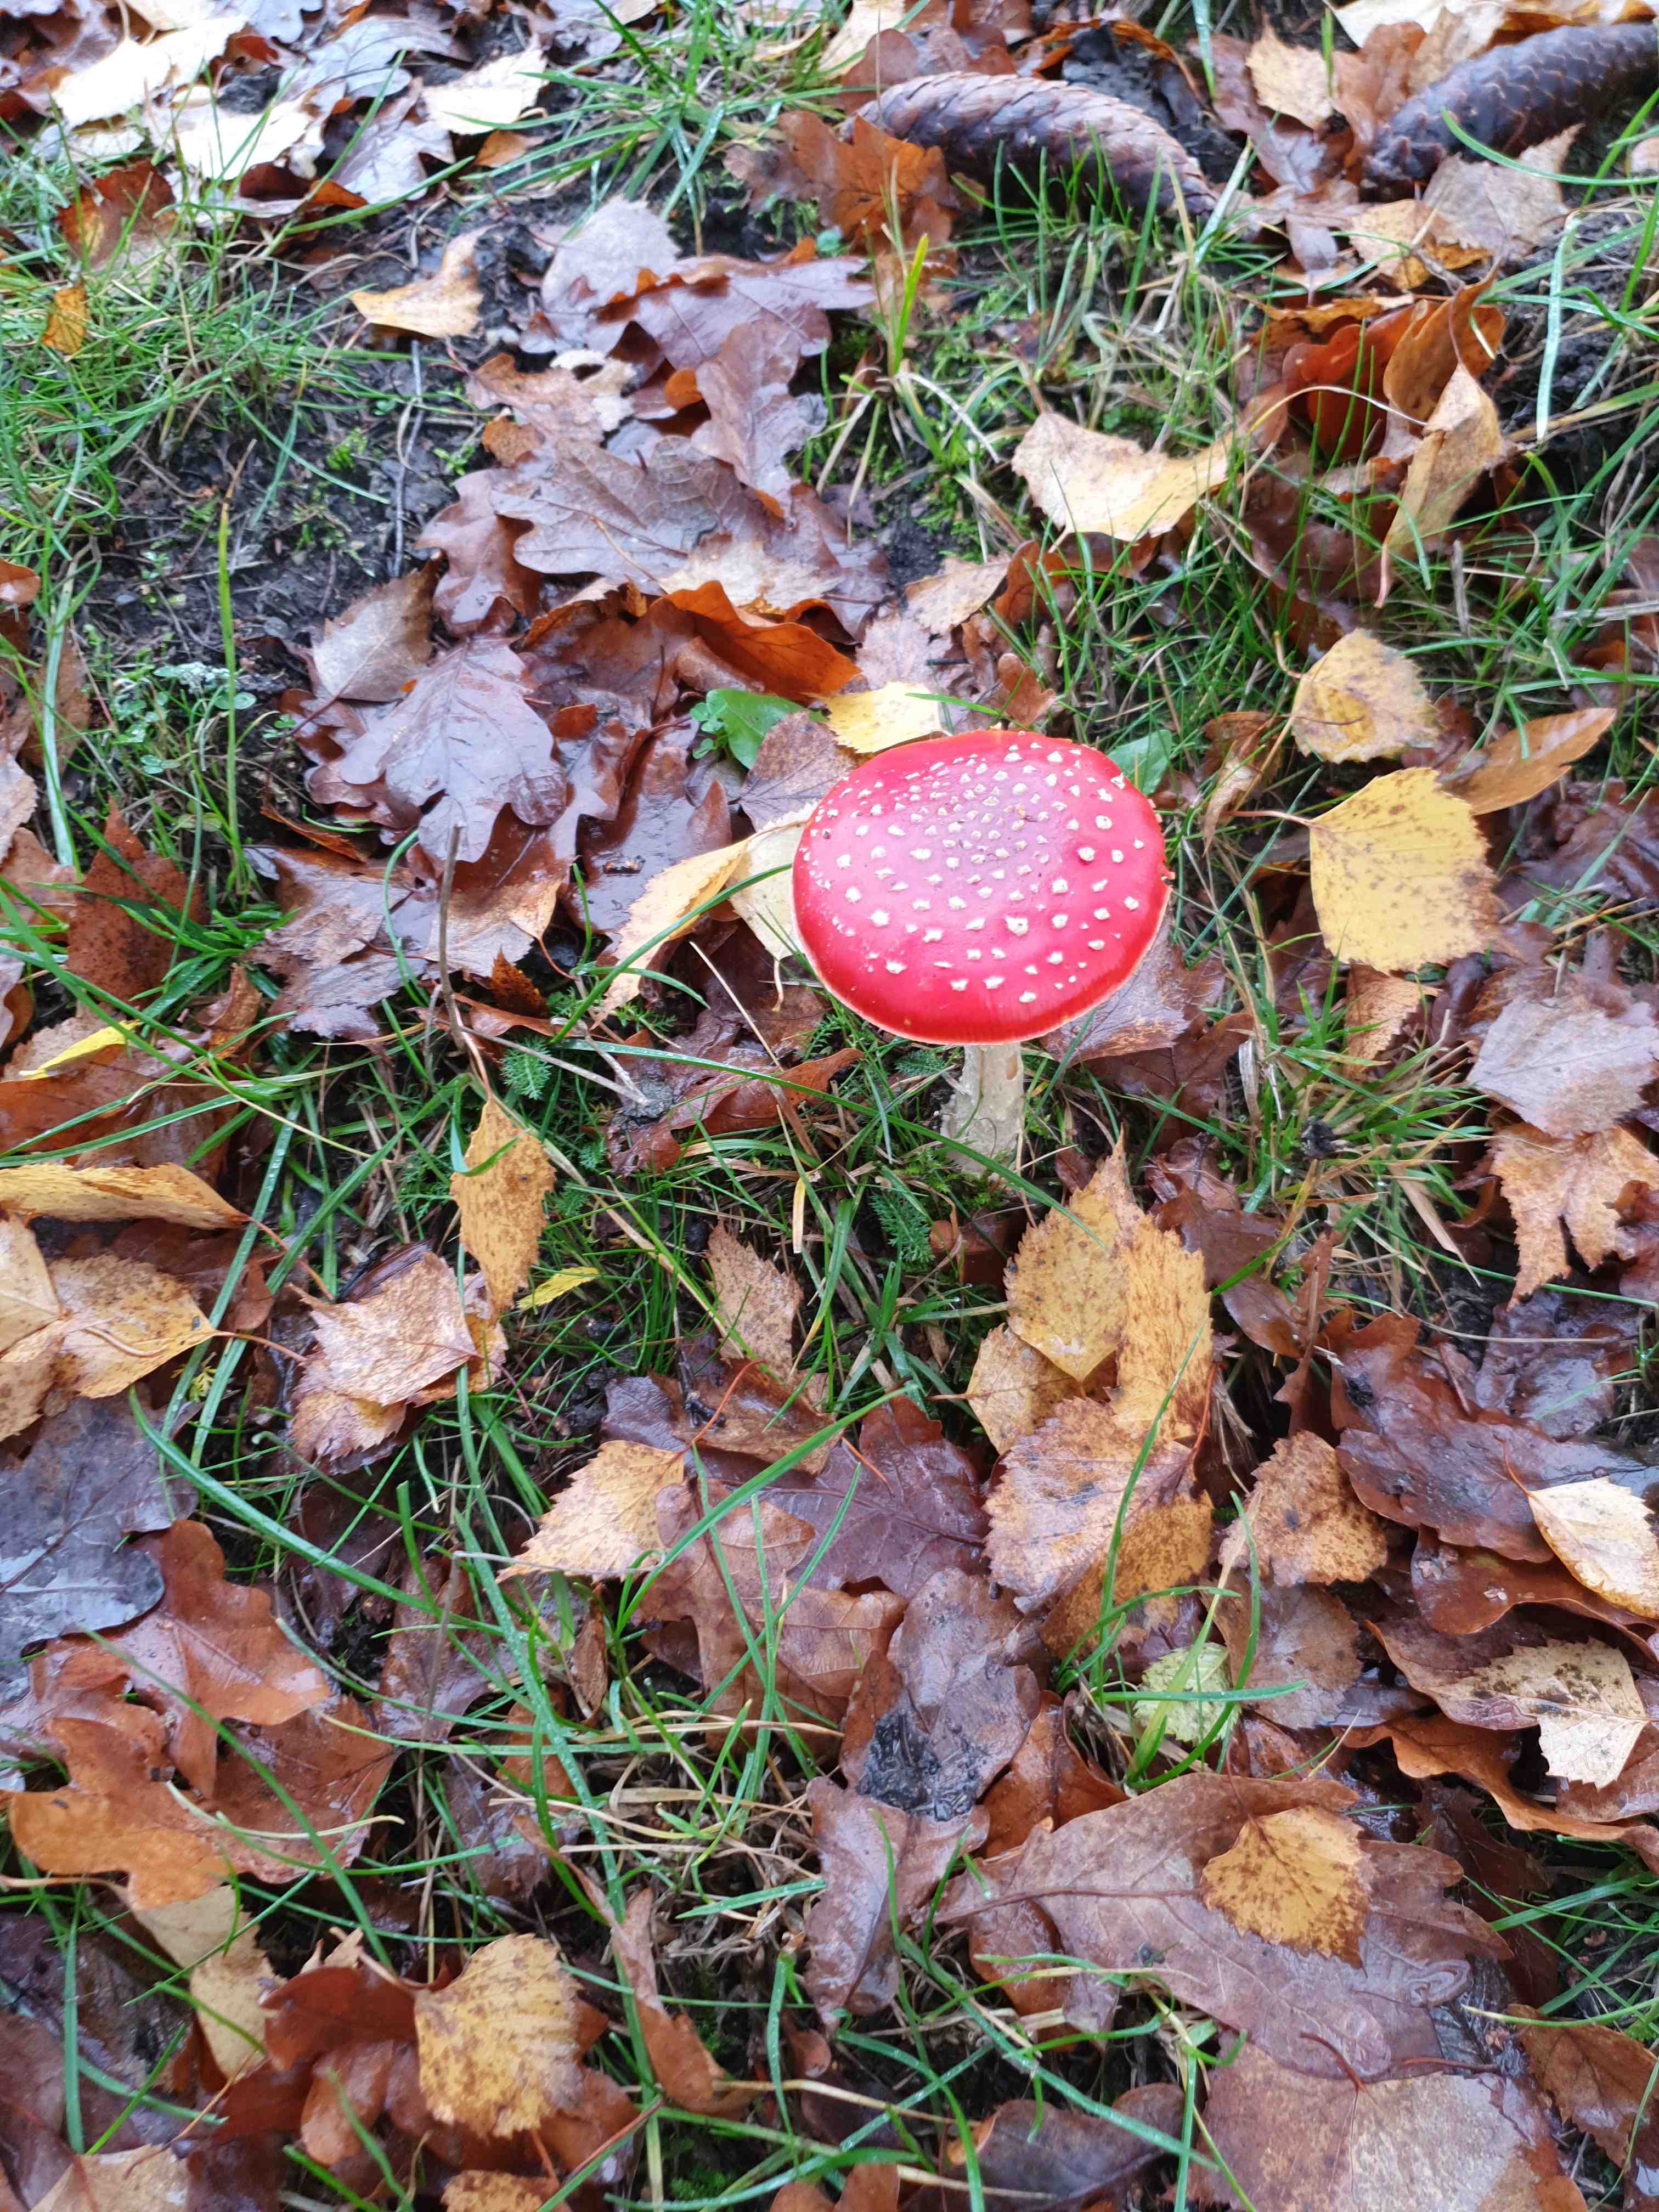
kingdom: Fungi
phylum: Basidiomycota
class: Agaricomycetes
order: Agaricales
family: Amanitaceae
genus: Amanita
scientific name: Amanita muscaria
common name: rød fluesvamp
